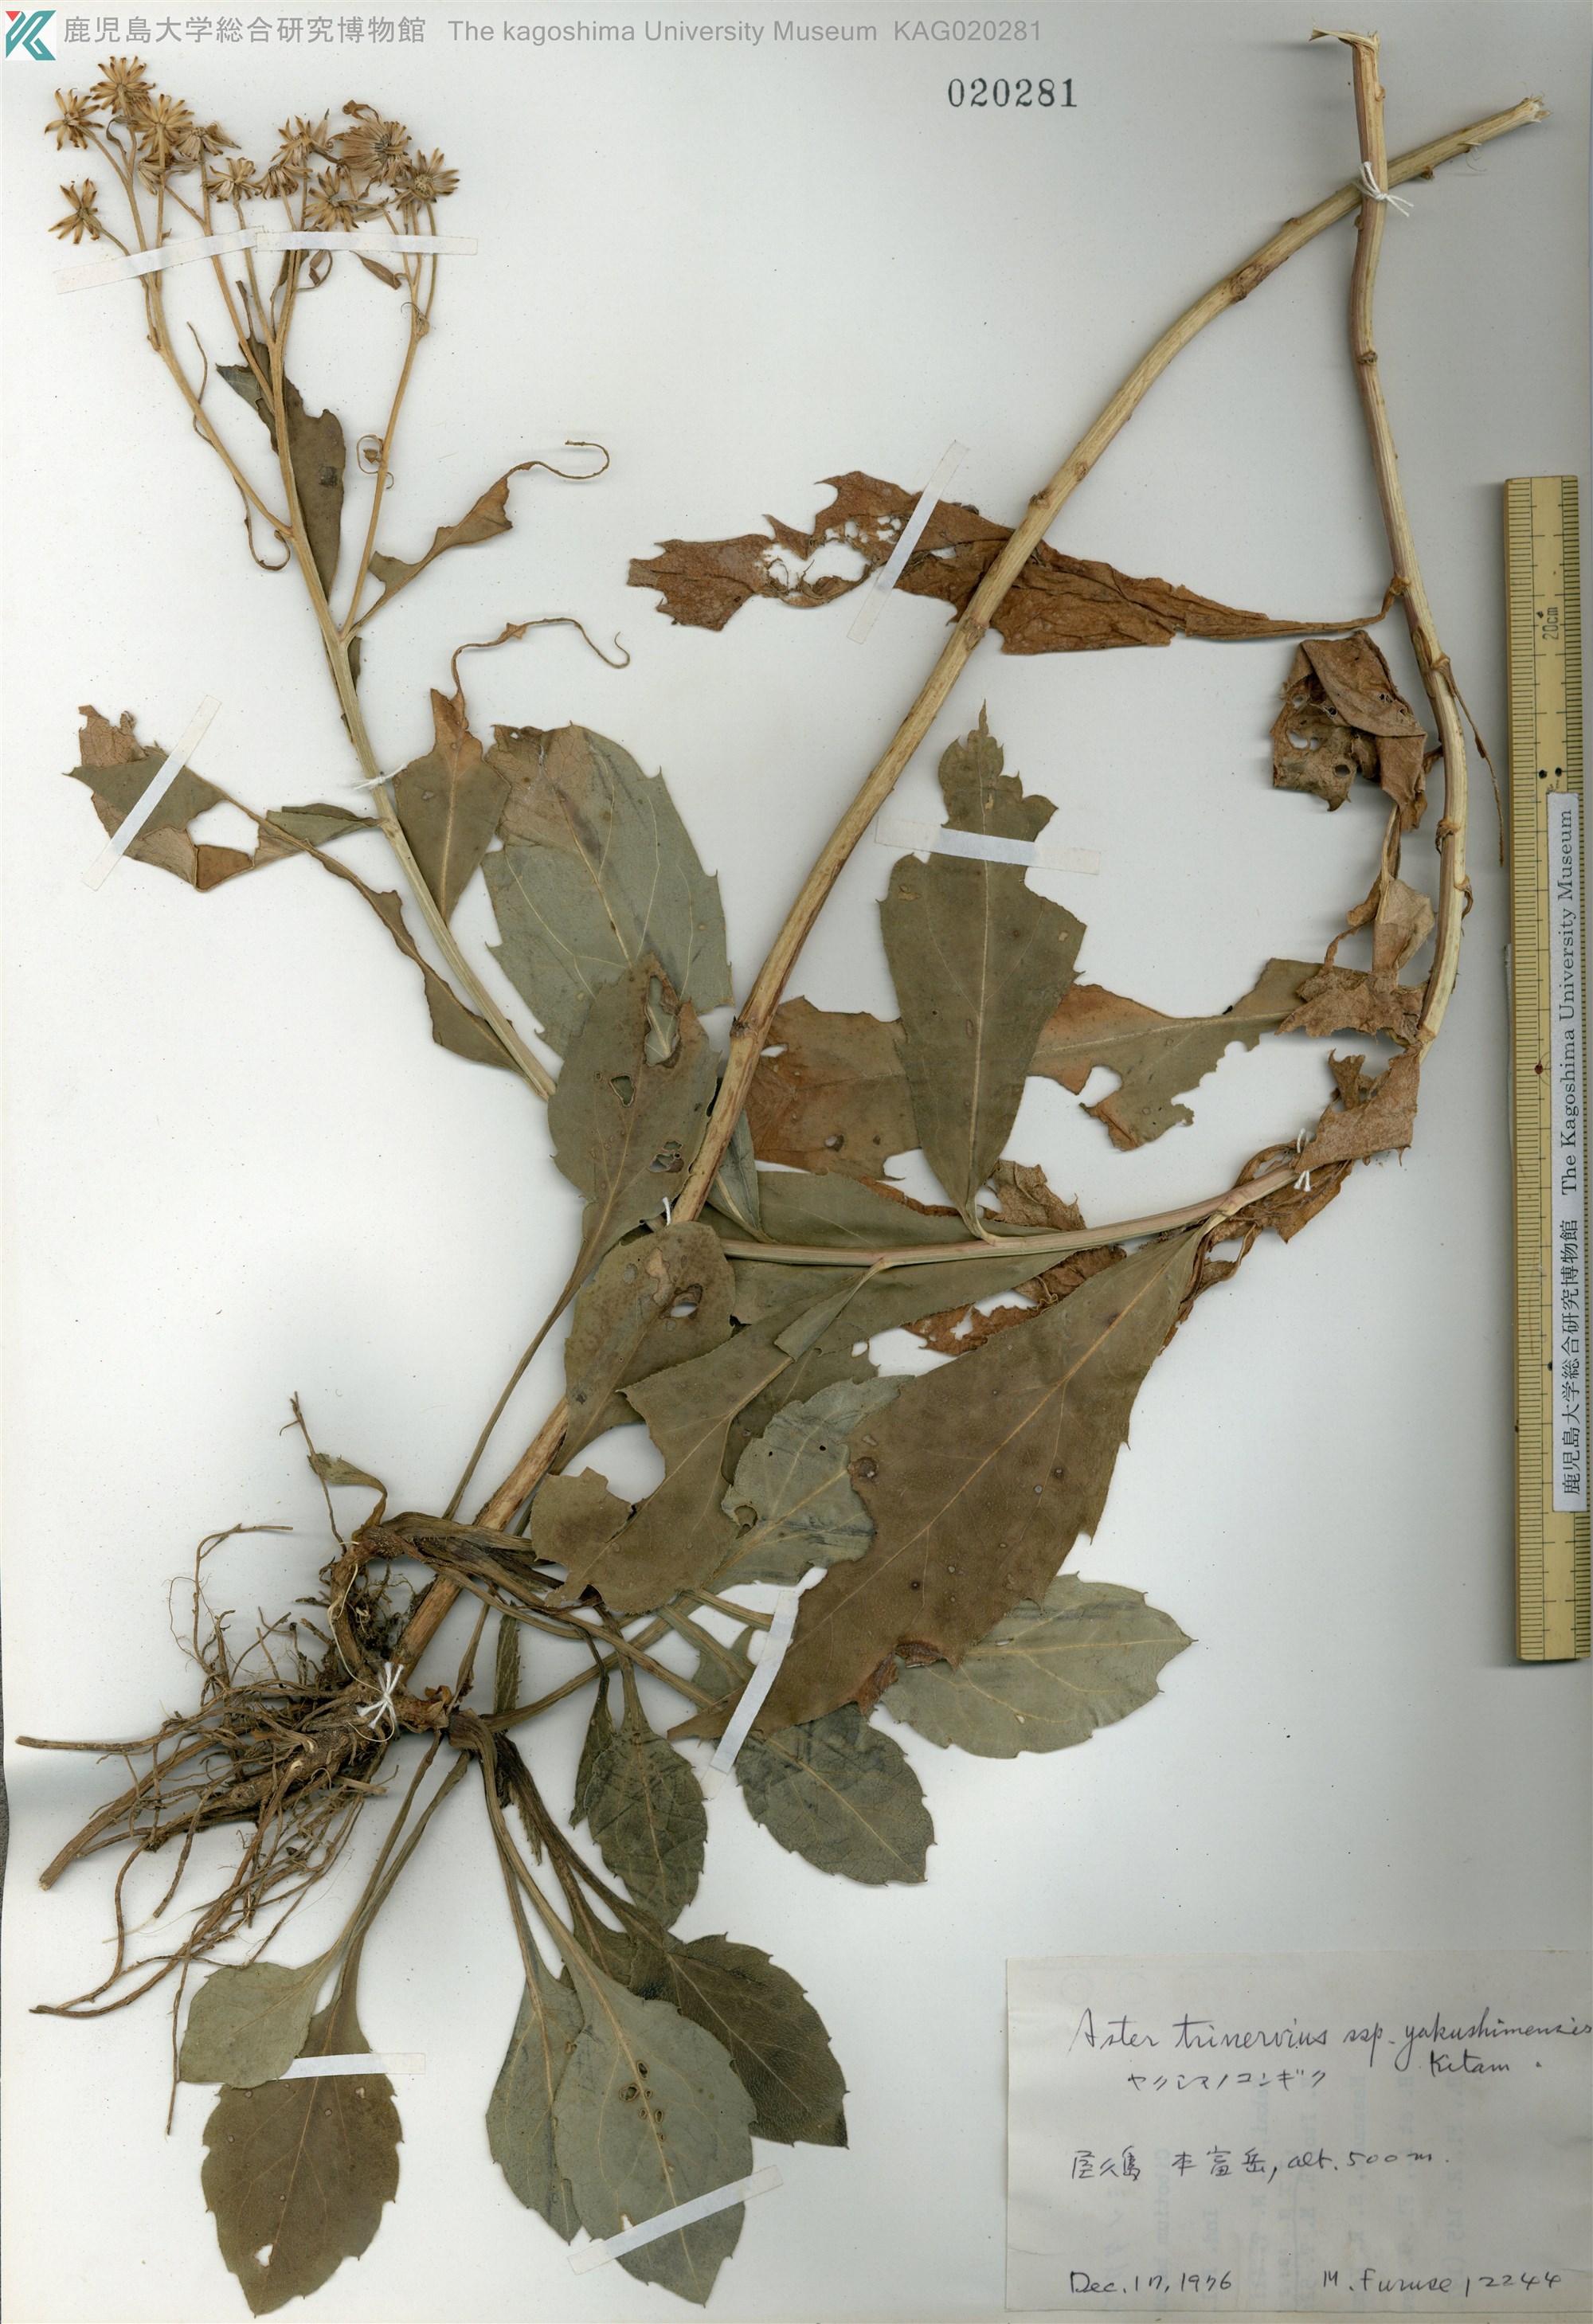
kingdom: Plantae
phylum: Tracheophyta
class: Magnoliopsida
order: Asterales
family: Asteraceae
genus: Aster
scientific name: Aster yakushimensis
